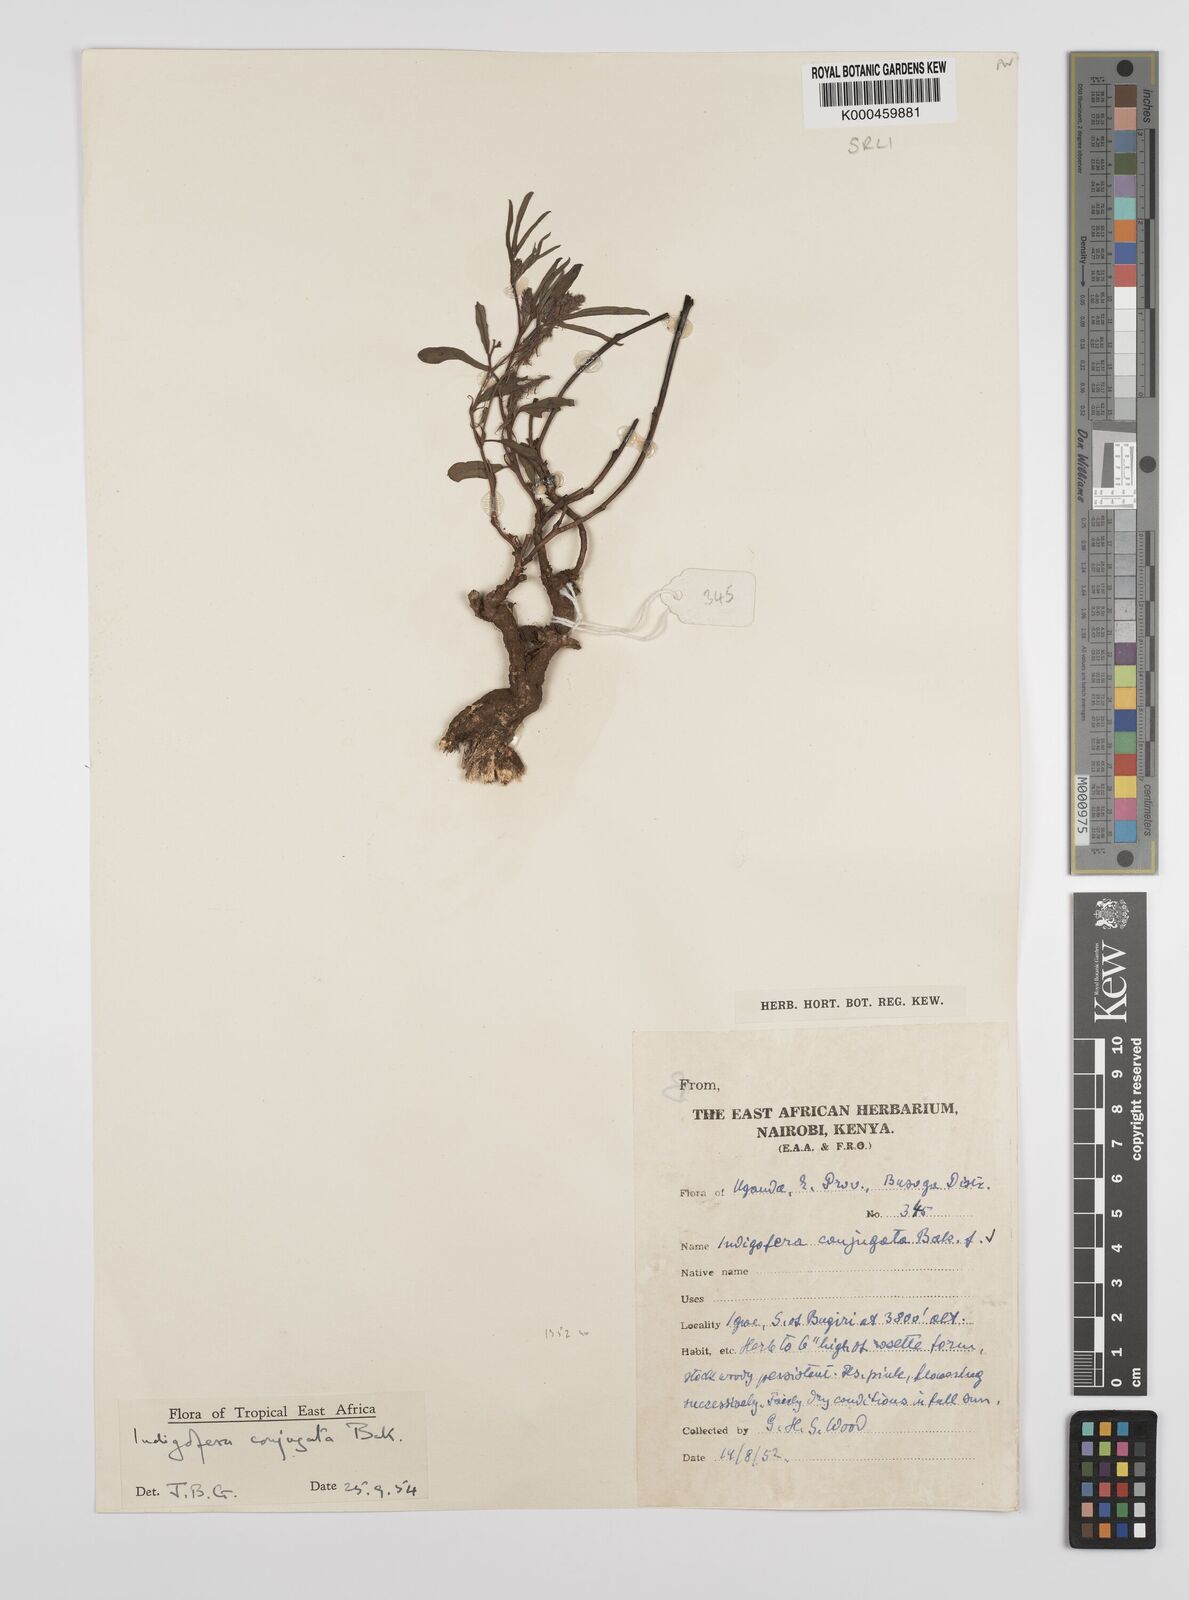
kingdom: Plantae
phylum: Tracheophyta
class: Magnoliopsida
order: Fabales
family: Fabaceae
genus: Indigofera
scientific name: Indigofera conjugata
